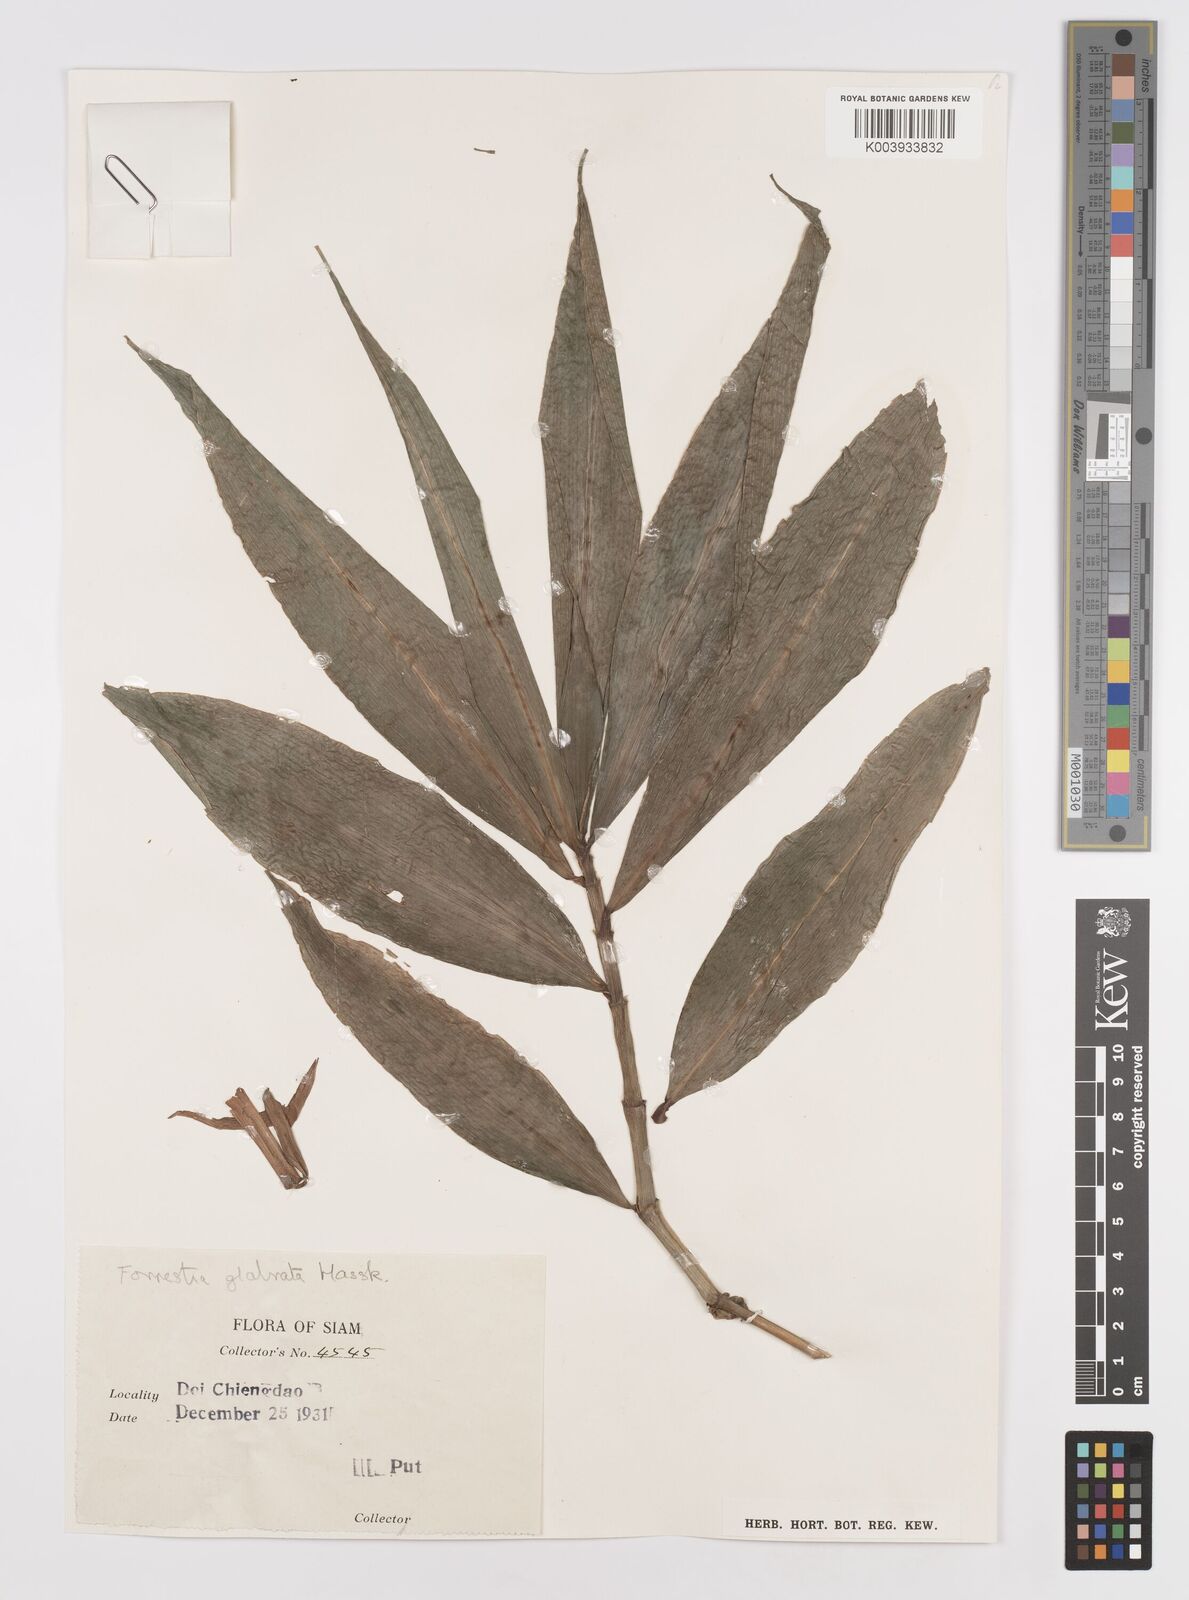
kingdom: Plantae
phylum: Tracheophyta
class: Liliopsida
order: Commelinales
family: Commelinaceae
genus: Amischotolype
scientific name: Amischotolype glabrata
